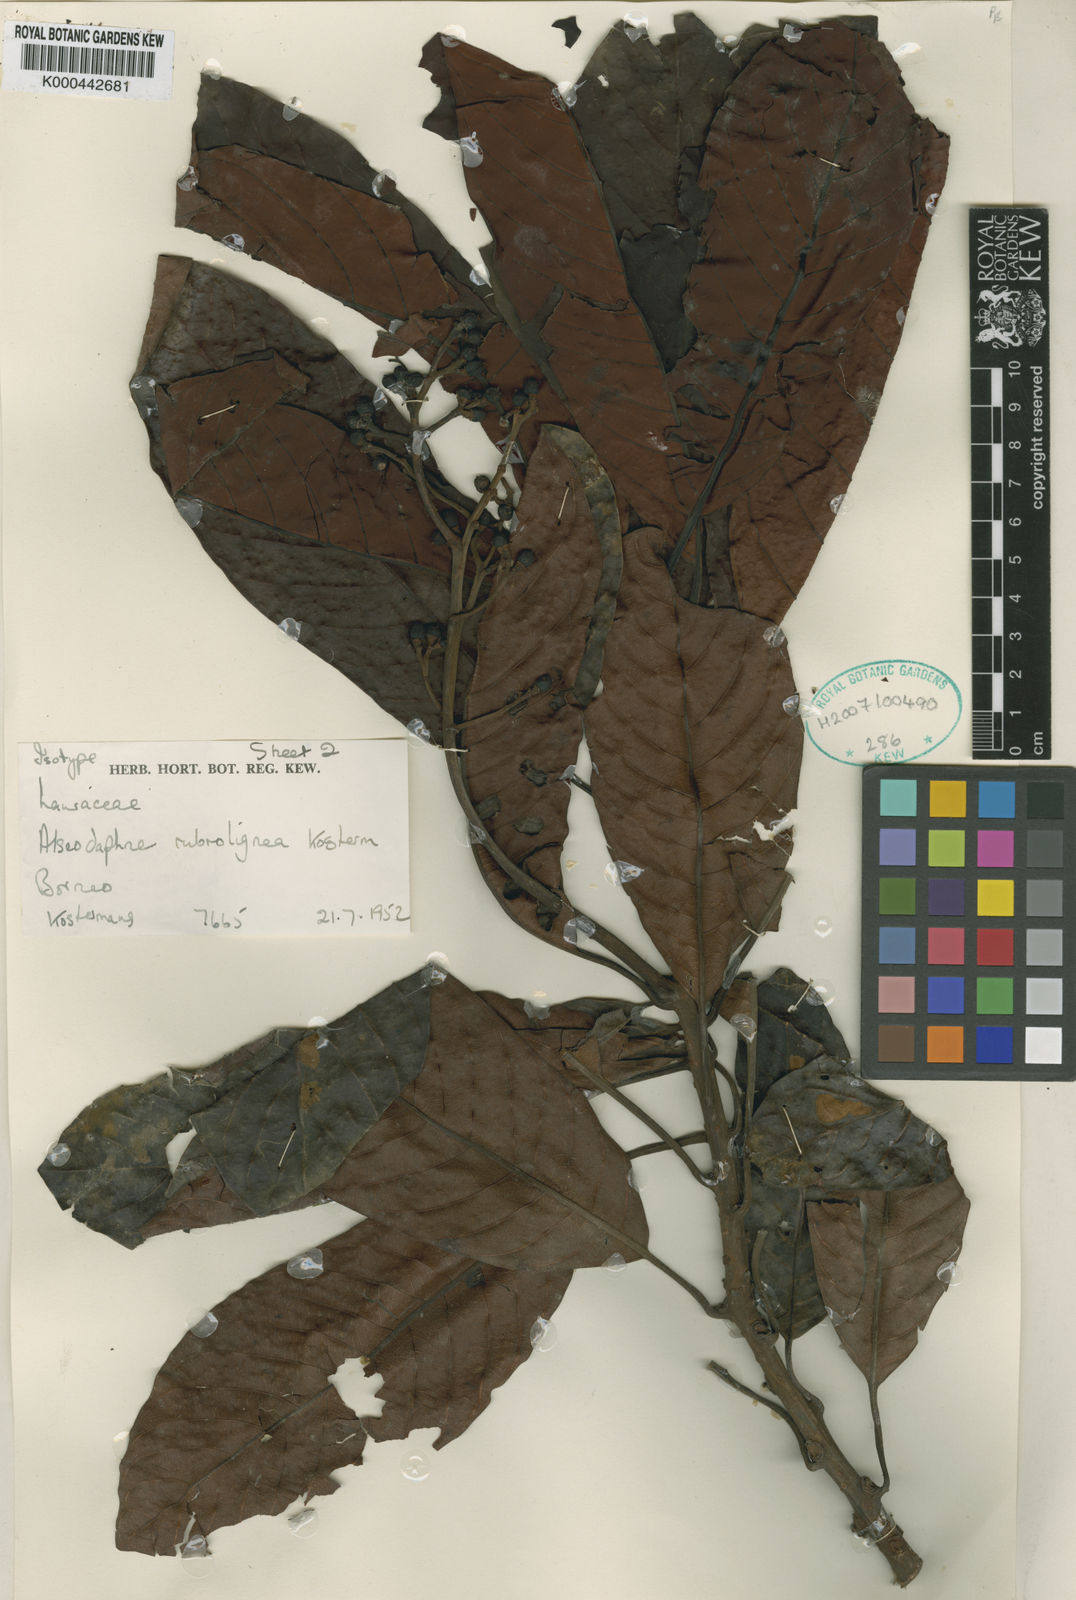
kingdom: Plantae
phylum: Tracheophyta
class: Magnoliopsida
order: Laurales
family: Lauraceae
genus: Alseodaphne
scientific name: Alseodaphne rubrolignea
